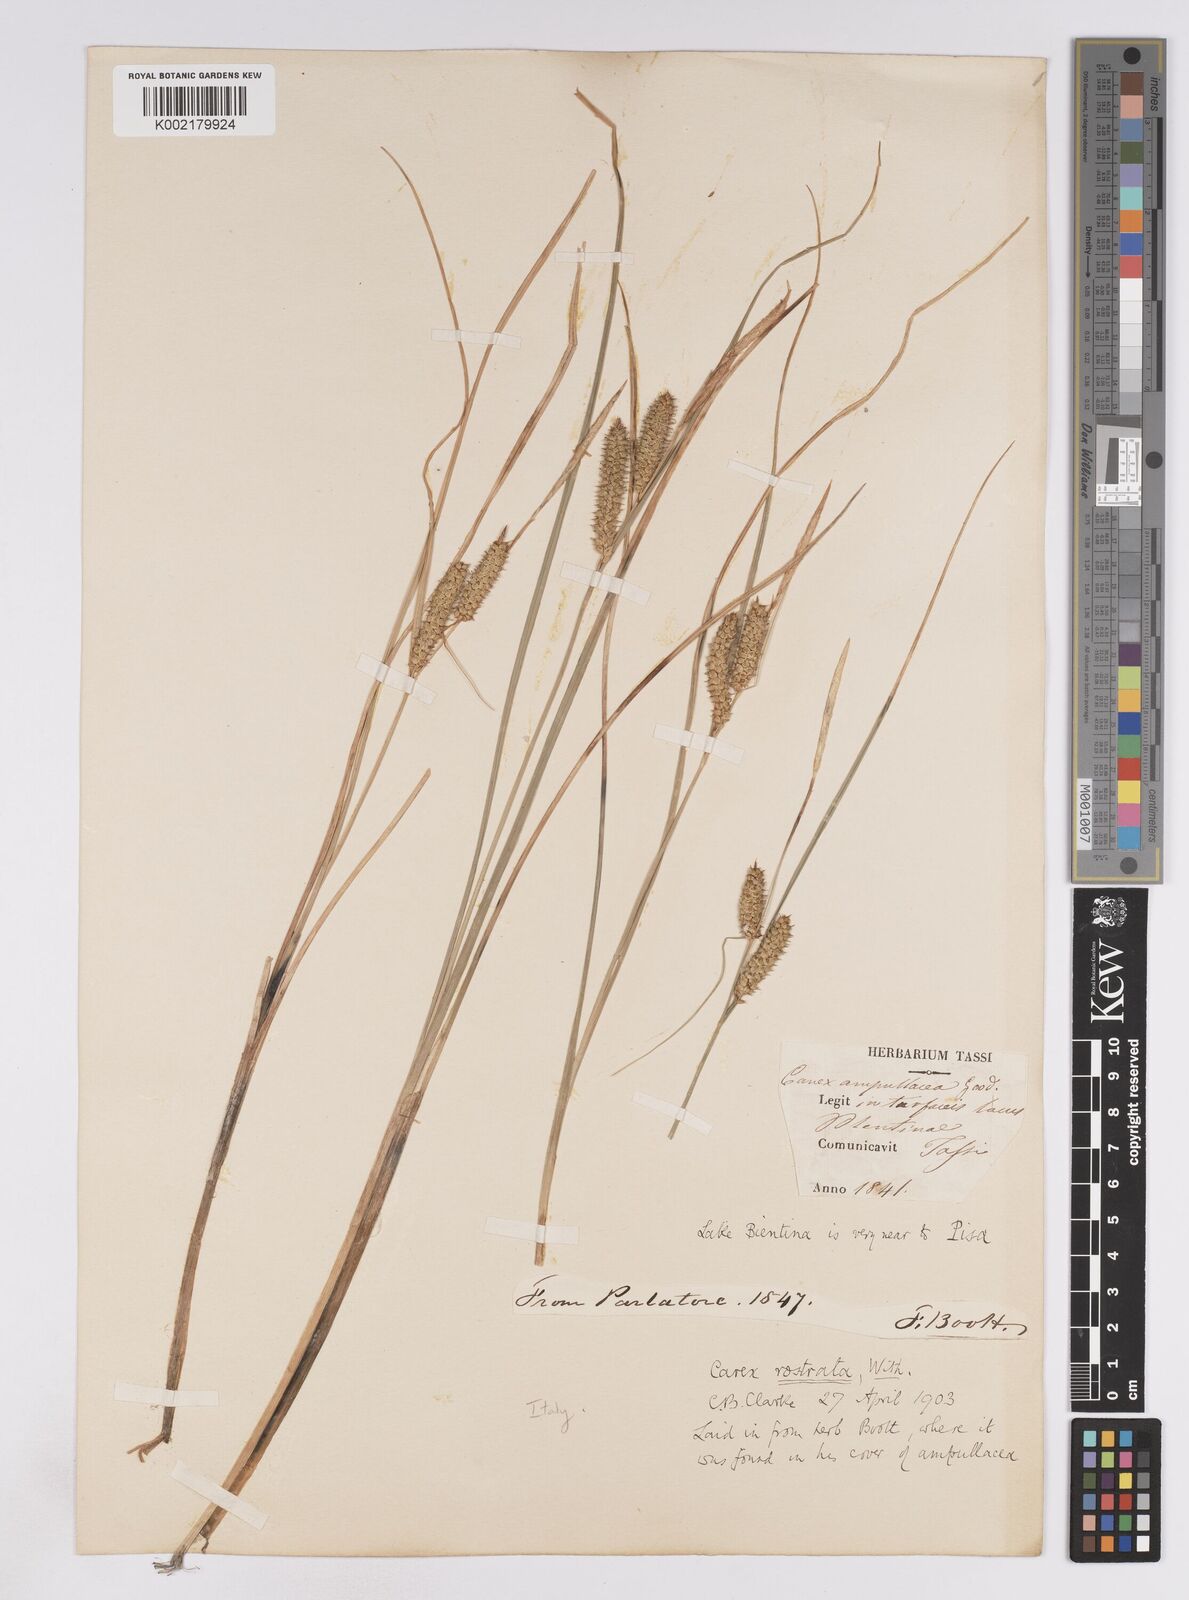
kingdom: Plantae
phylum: Tracheophyta
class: Liliopsida
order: Poales
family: Cyperaceae
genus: Carex
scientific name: Carex rostrata
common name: Bottle sedge
